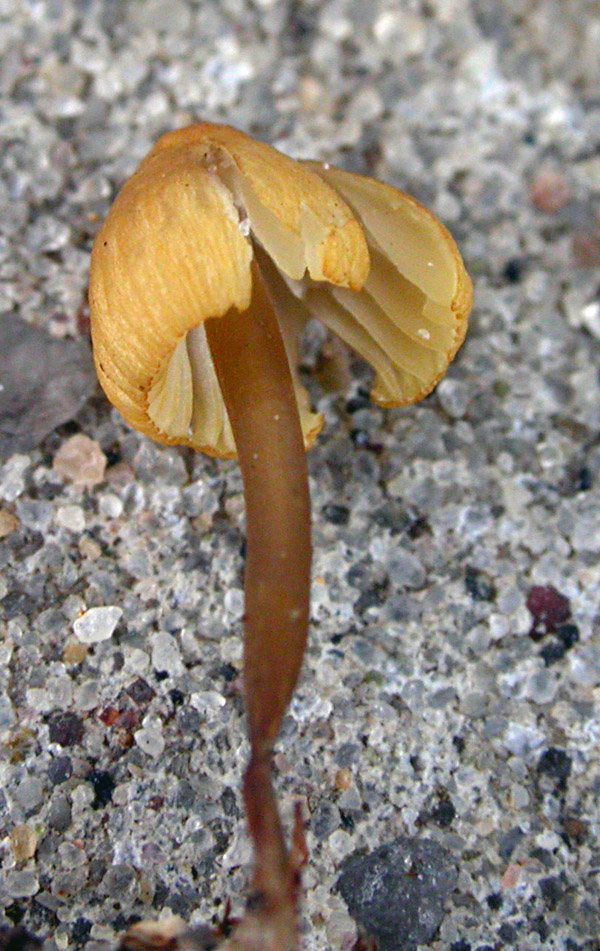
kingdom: Fungi
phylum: Basidiomycota
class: Agaricomycetes
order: Agaricales
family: Mycenaceae
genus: Mycena
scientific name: Mycena citrinomarginata
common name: gulægget huesvamp
